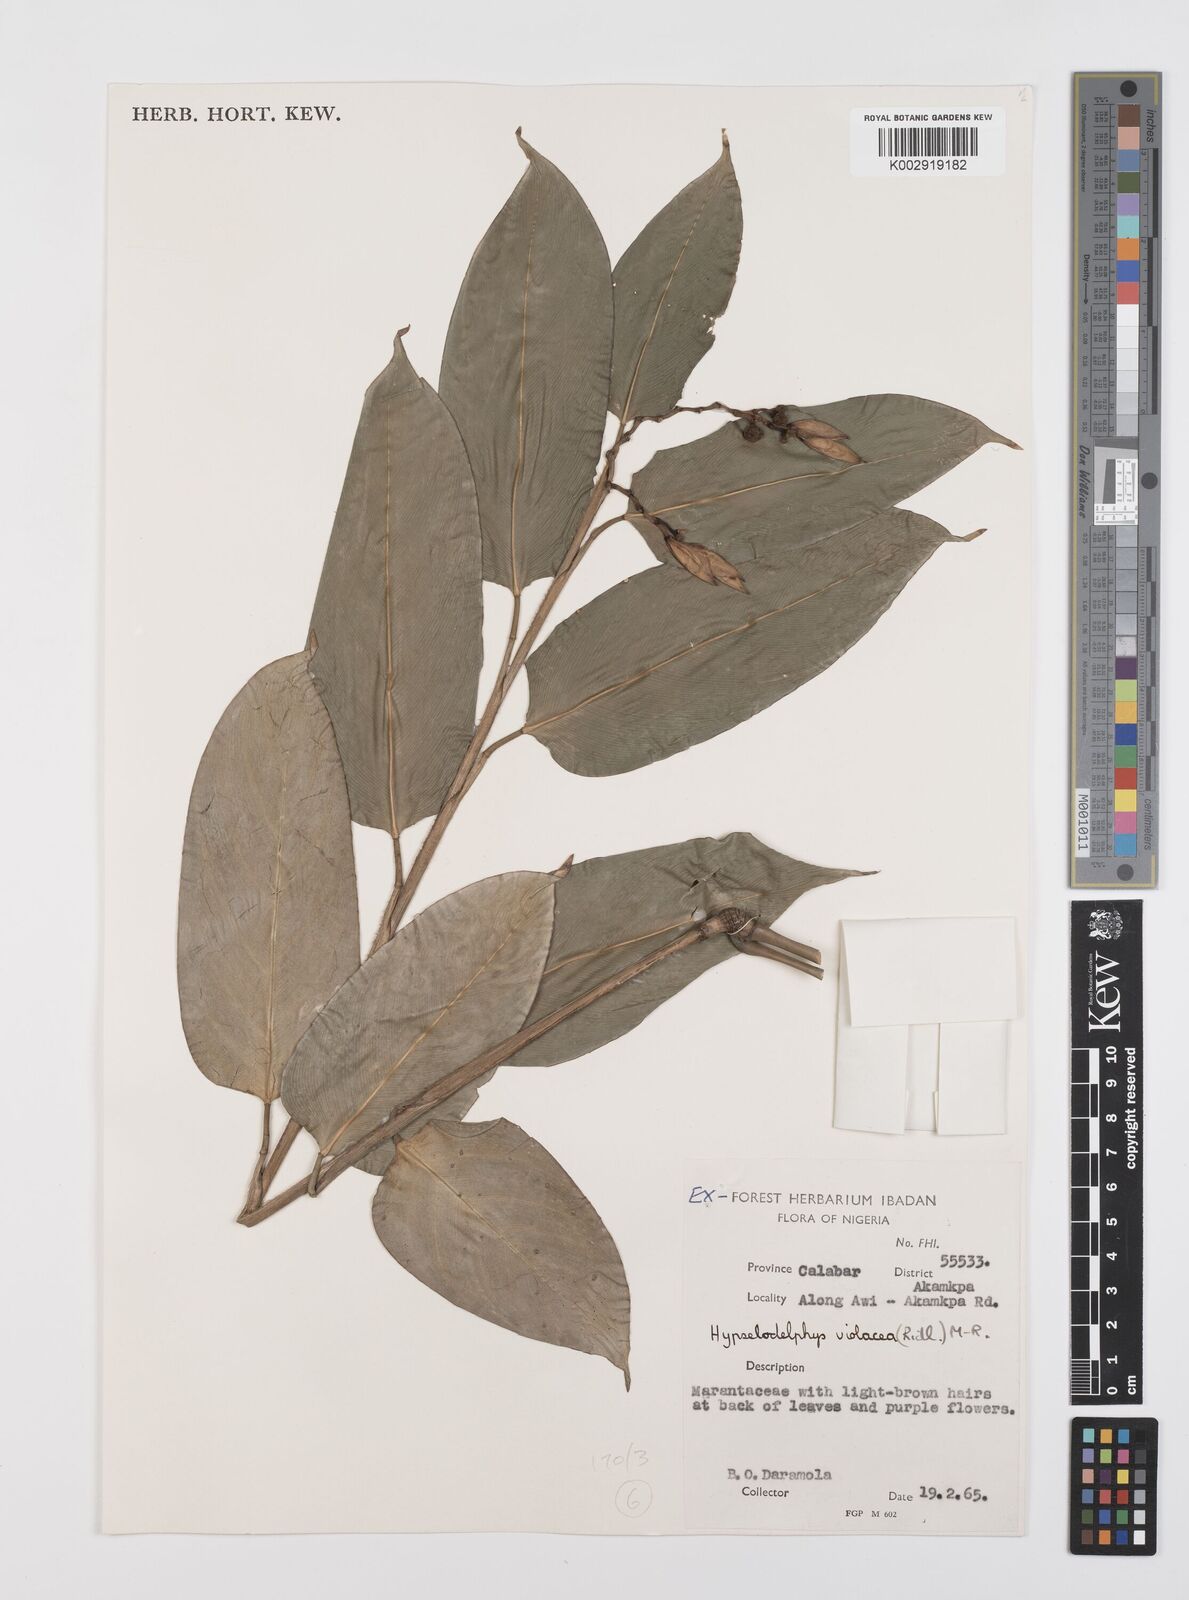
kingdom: Plantae
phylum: Tracheophyta
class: Liliopsida
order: Zingiberales
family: Marantaceae
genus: Hypselodelphys
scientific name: Hypselodelphys violacea
